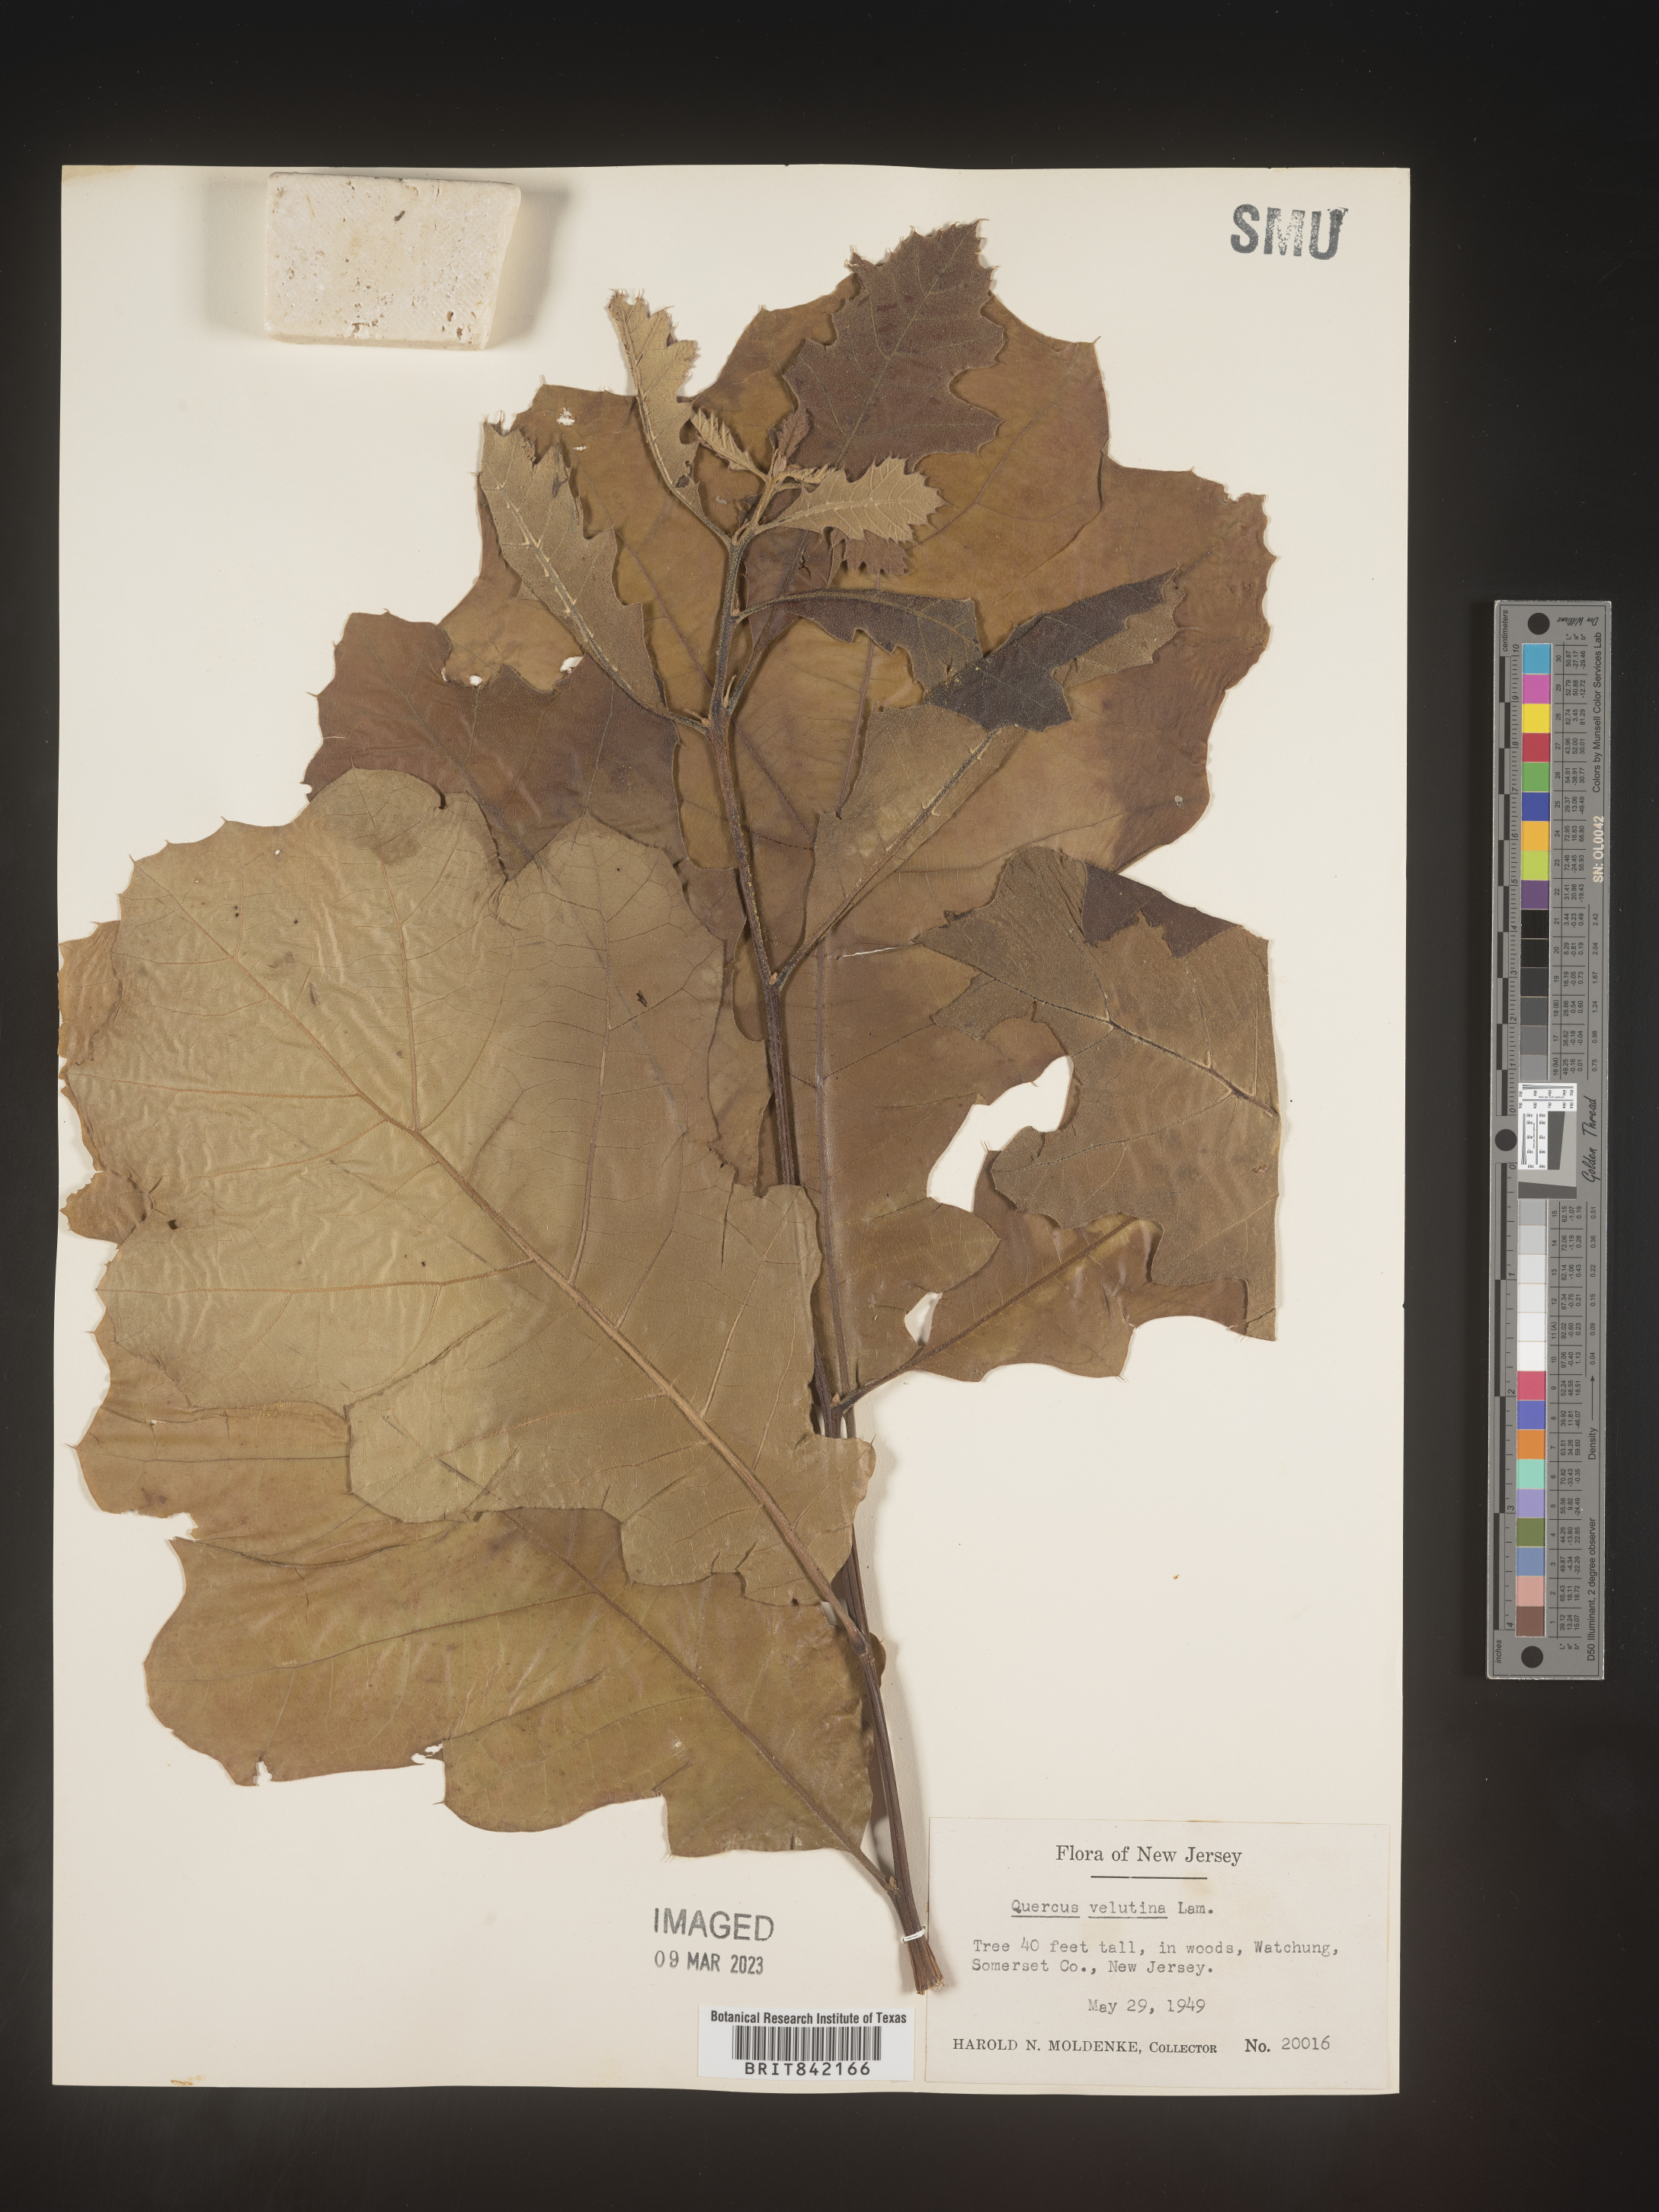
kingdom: Plantae
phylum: Tracheophyta
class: Magnoliopsida
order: Fagales
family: Fagaceae
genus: Quercus
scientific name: Quercus velutina
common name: Black oak
